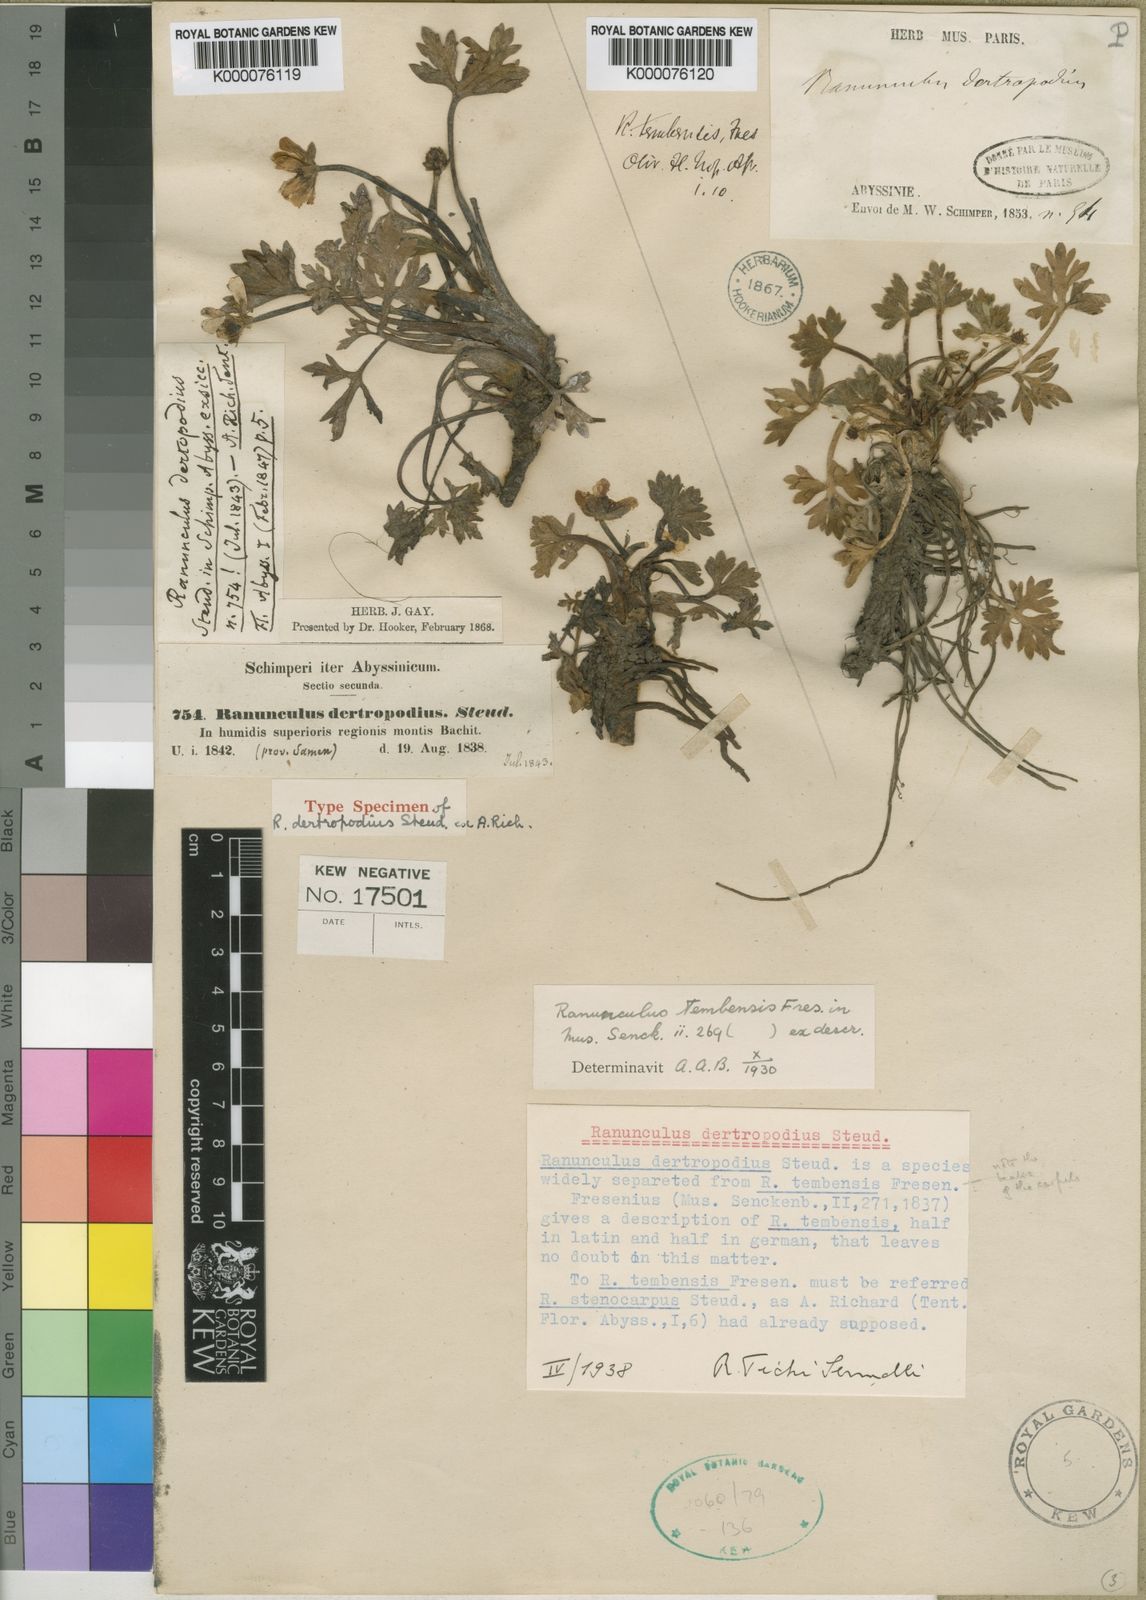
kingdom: Plantae
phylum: Tracheophyta
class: Magnoliopsida
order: Ranunculales
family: Ranunculaceae
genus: Ranunculus
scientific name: Ranunculus tembensis
